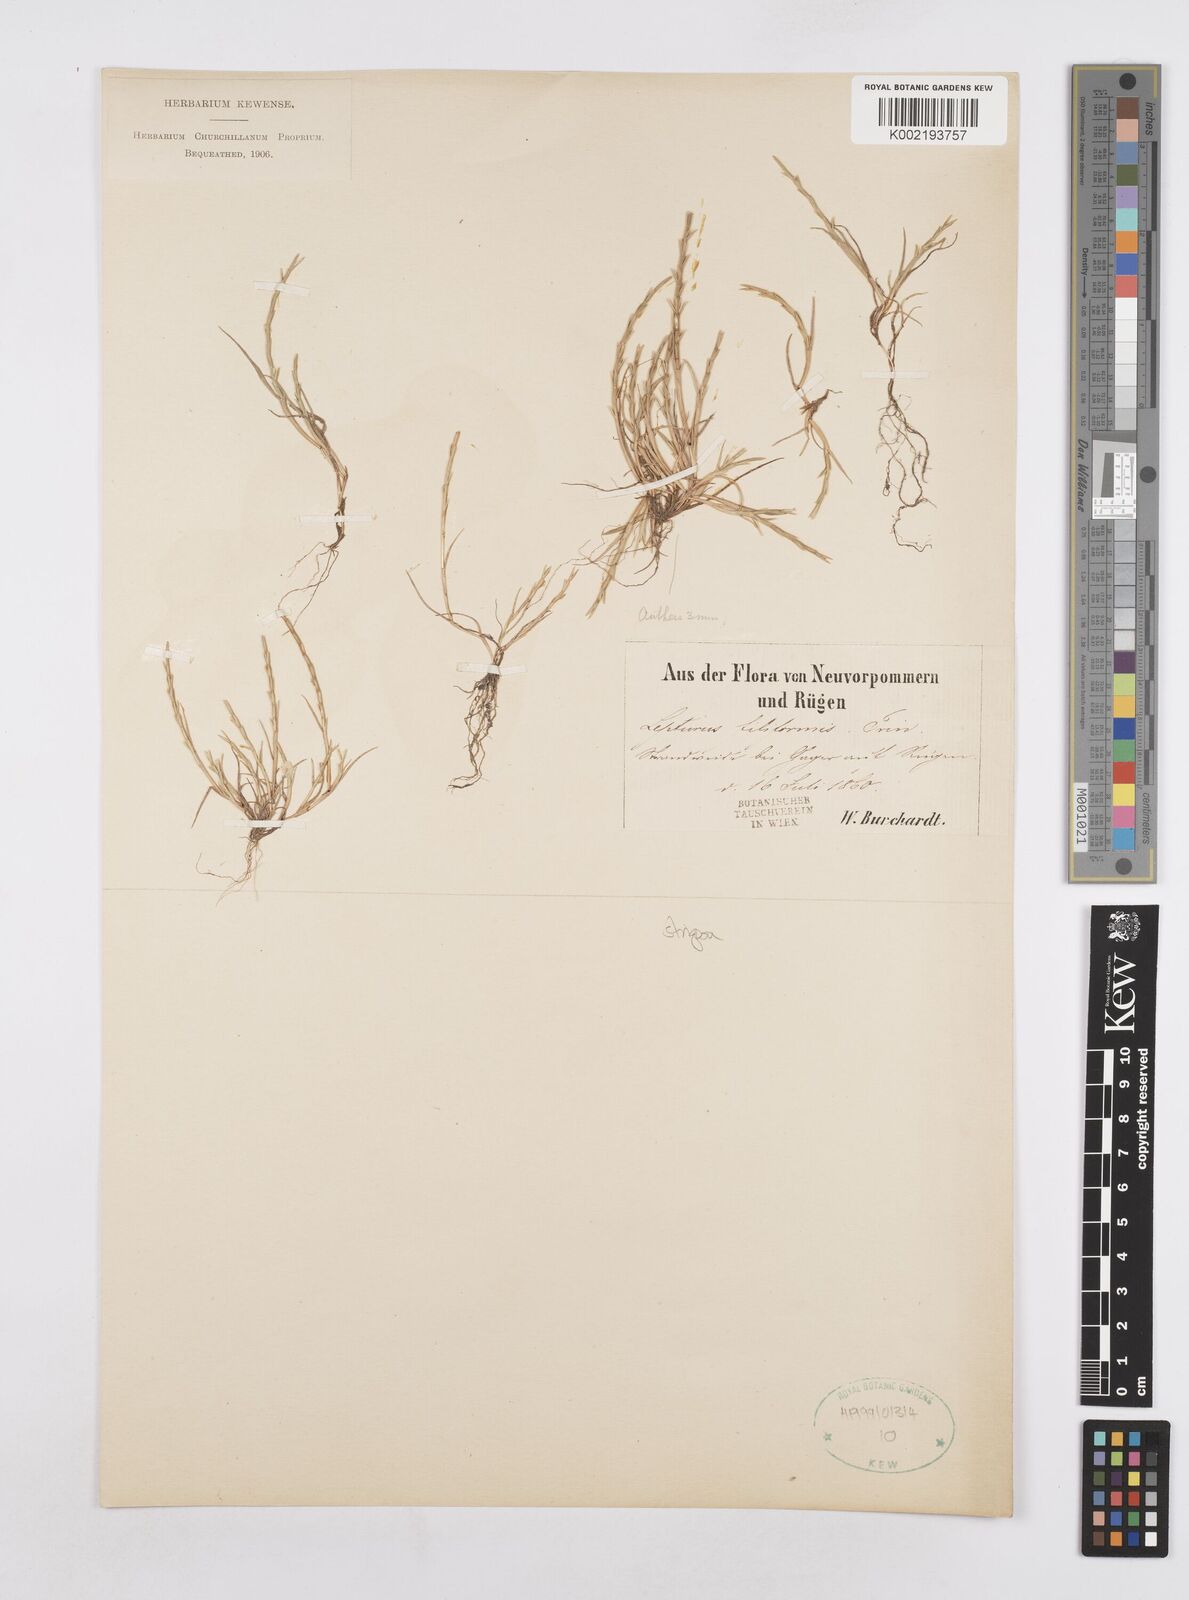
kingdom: Plantae
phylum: Tracheophyta
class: Liliopsida
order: Poales
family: Poaceae
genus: Parapholis
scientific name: Parapholis
